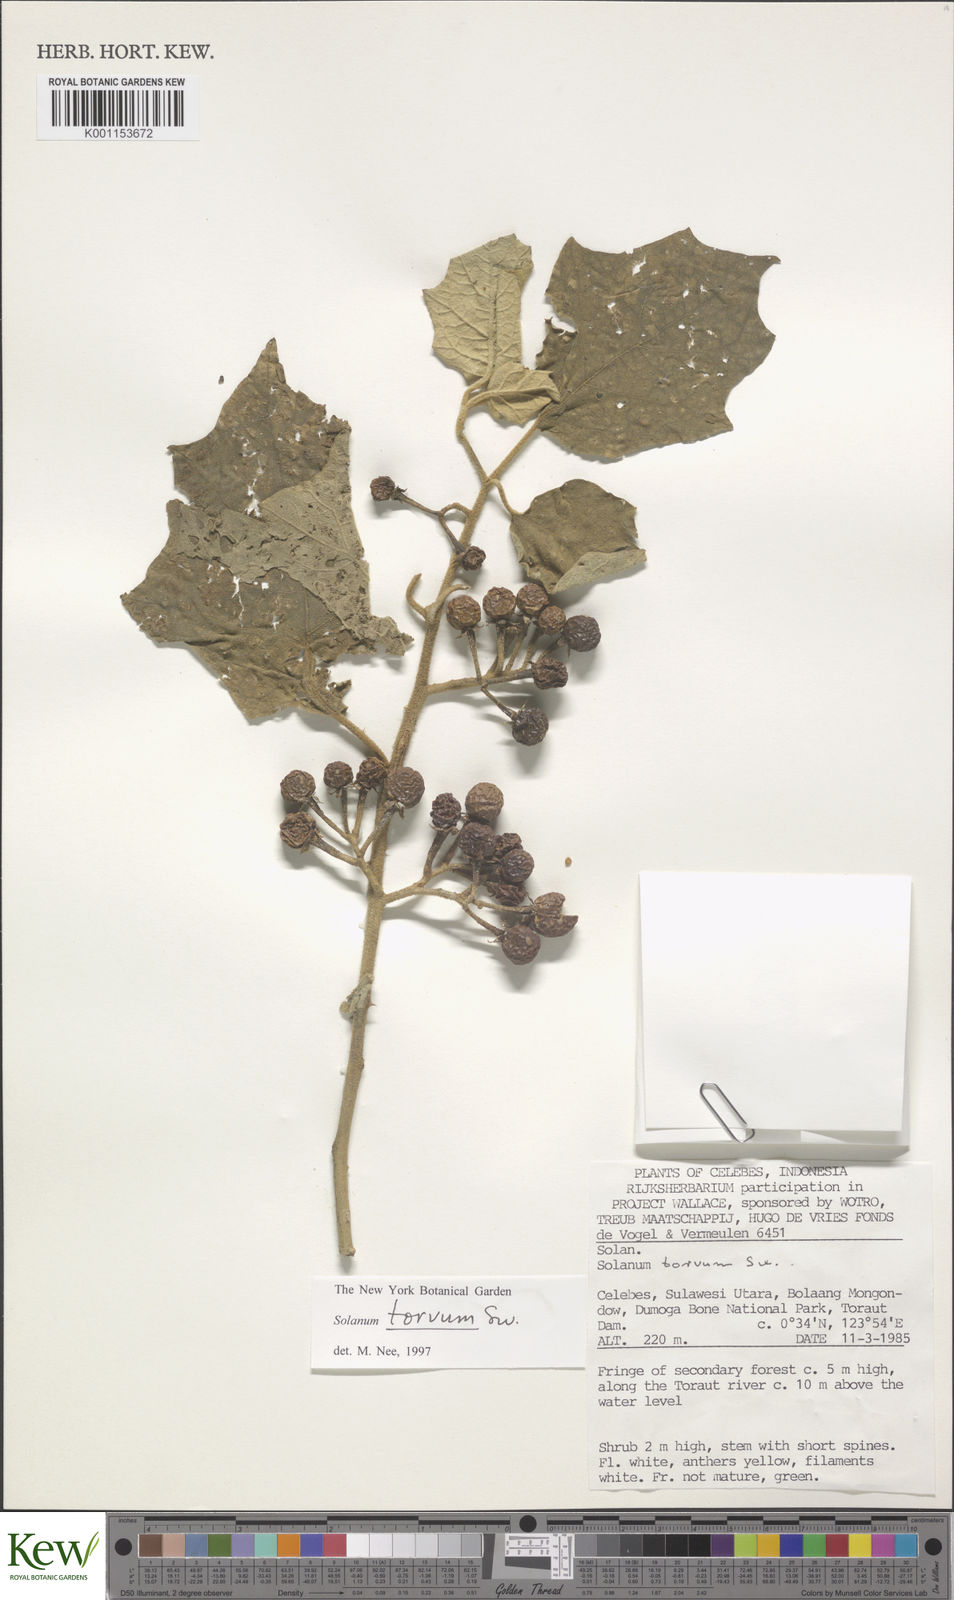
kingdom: Plantae
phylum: Tracheophyta
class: Magnoliopsida
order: Solanales
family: Solanaceae
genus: Solanum
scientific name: Solanum torvum
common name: Turkey berry
